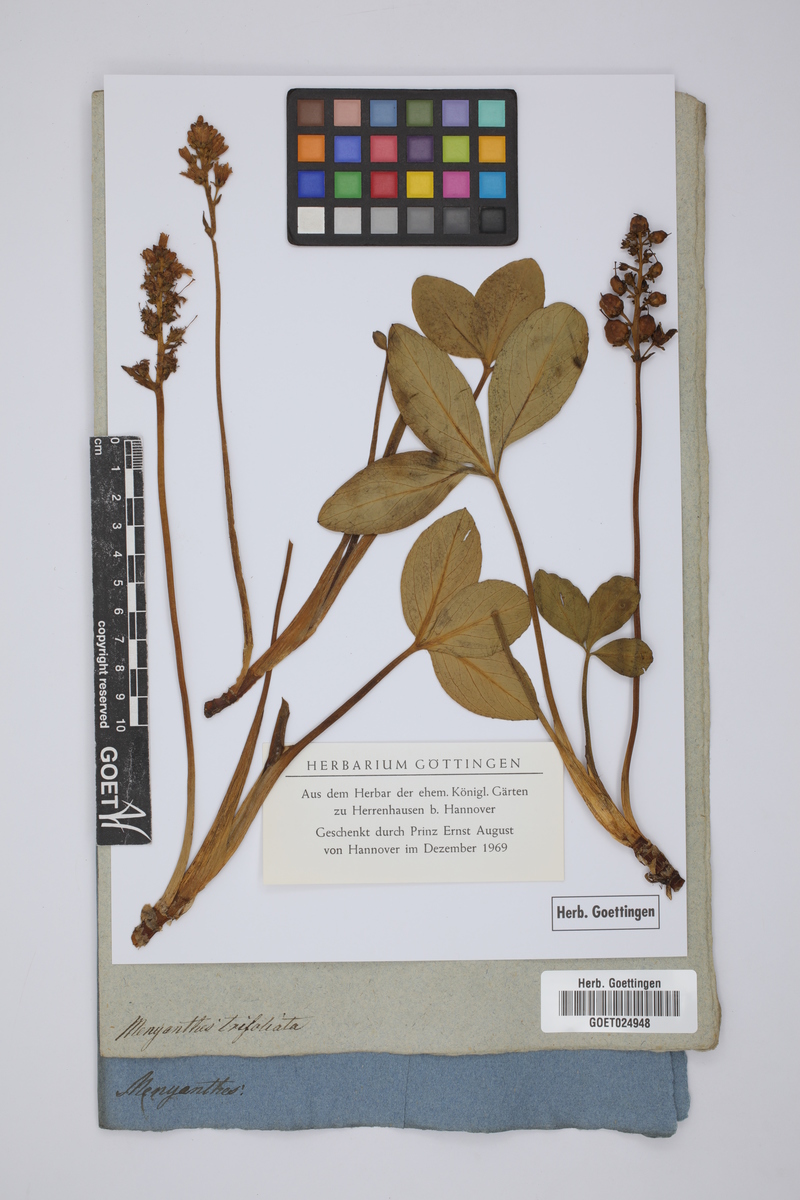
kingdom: Plantae
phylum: Tracheophyta
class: Magnoliopsida
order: Asterales
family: Menyanthaceae
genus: Menyanthes
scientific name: Menyanthes trifoliata
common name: Bogbean
